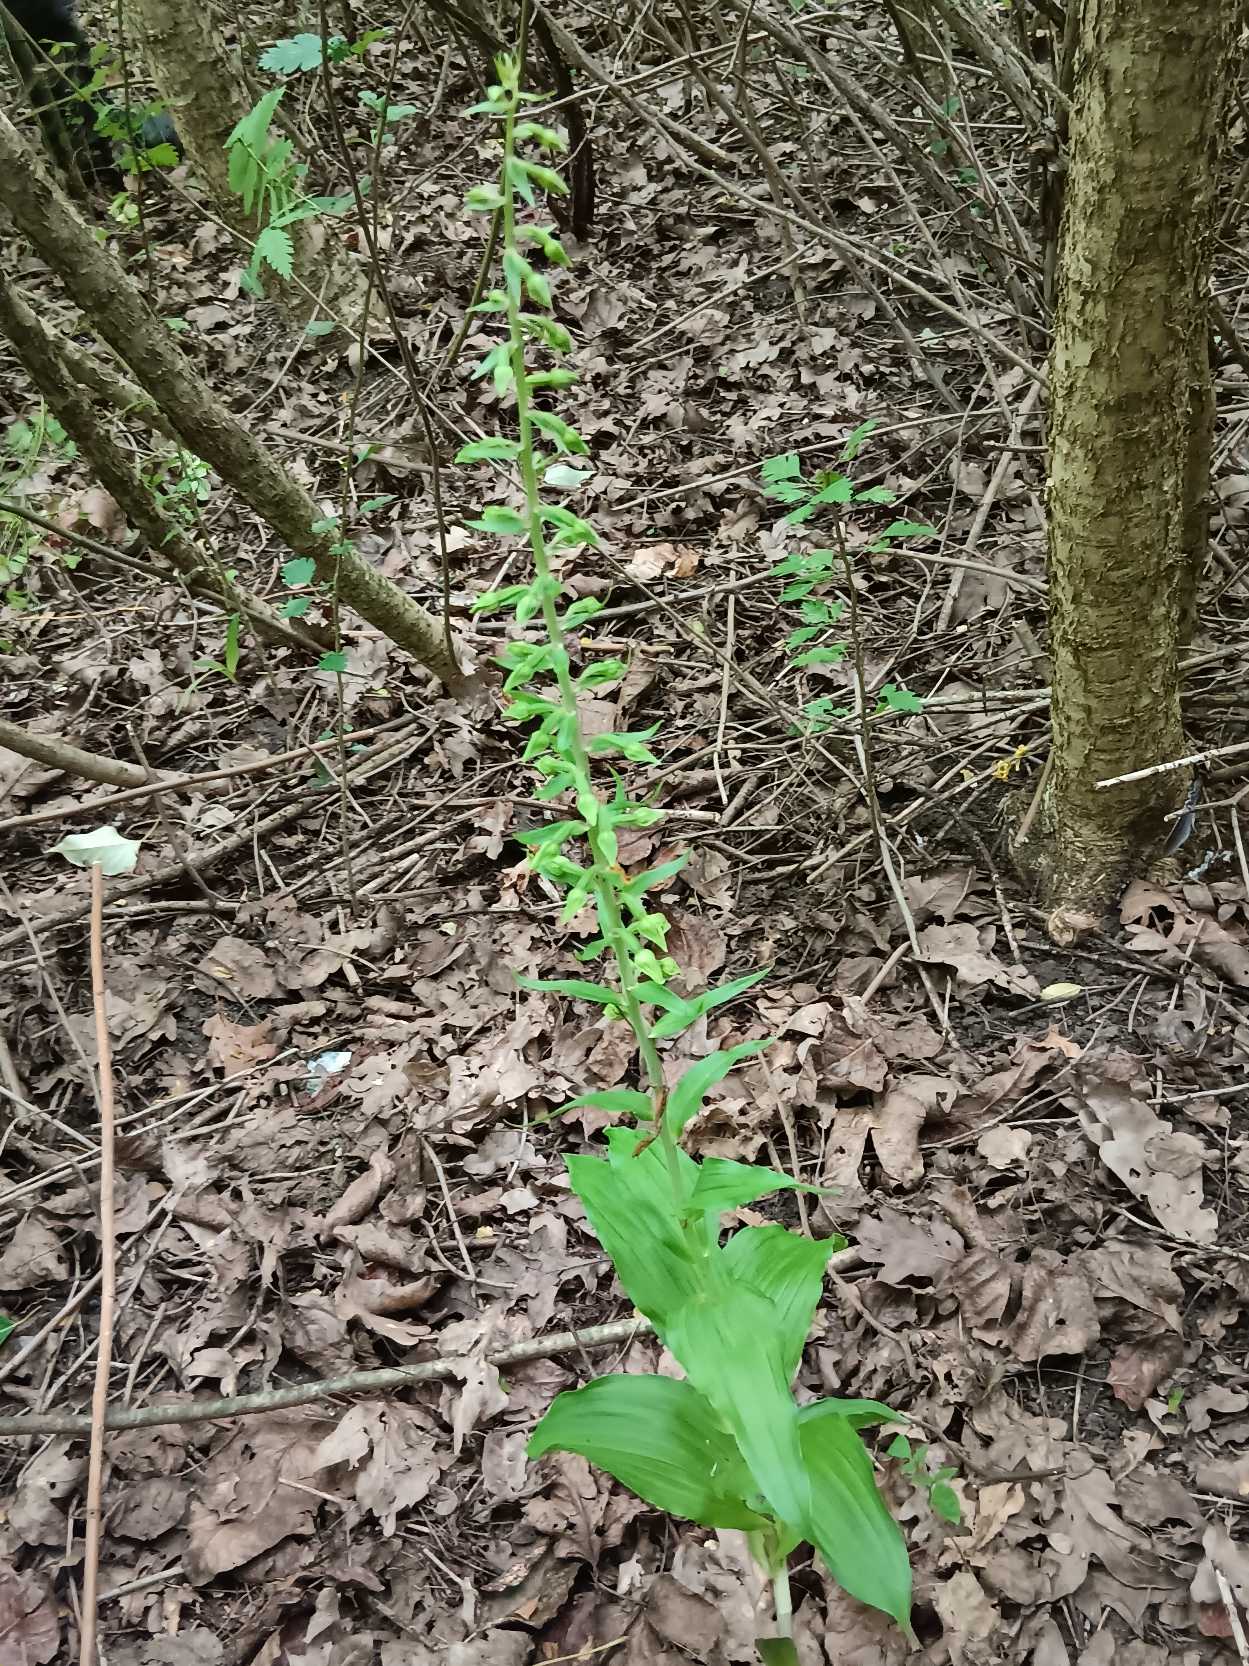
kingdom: Plantae
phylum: Tracheophyta
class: Liliopsida
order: Asparagales
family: Orchidaceae
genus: Epipactis
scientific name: Epipactis helleborine
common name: Skov-hullæbe
